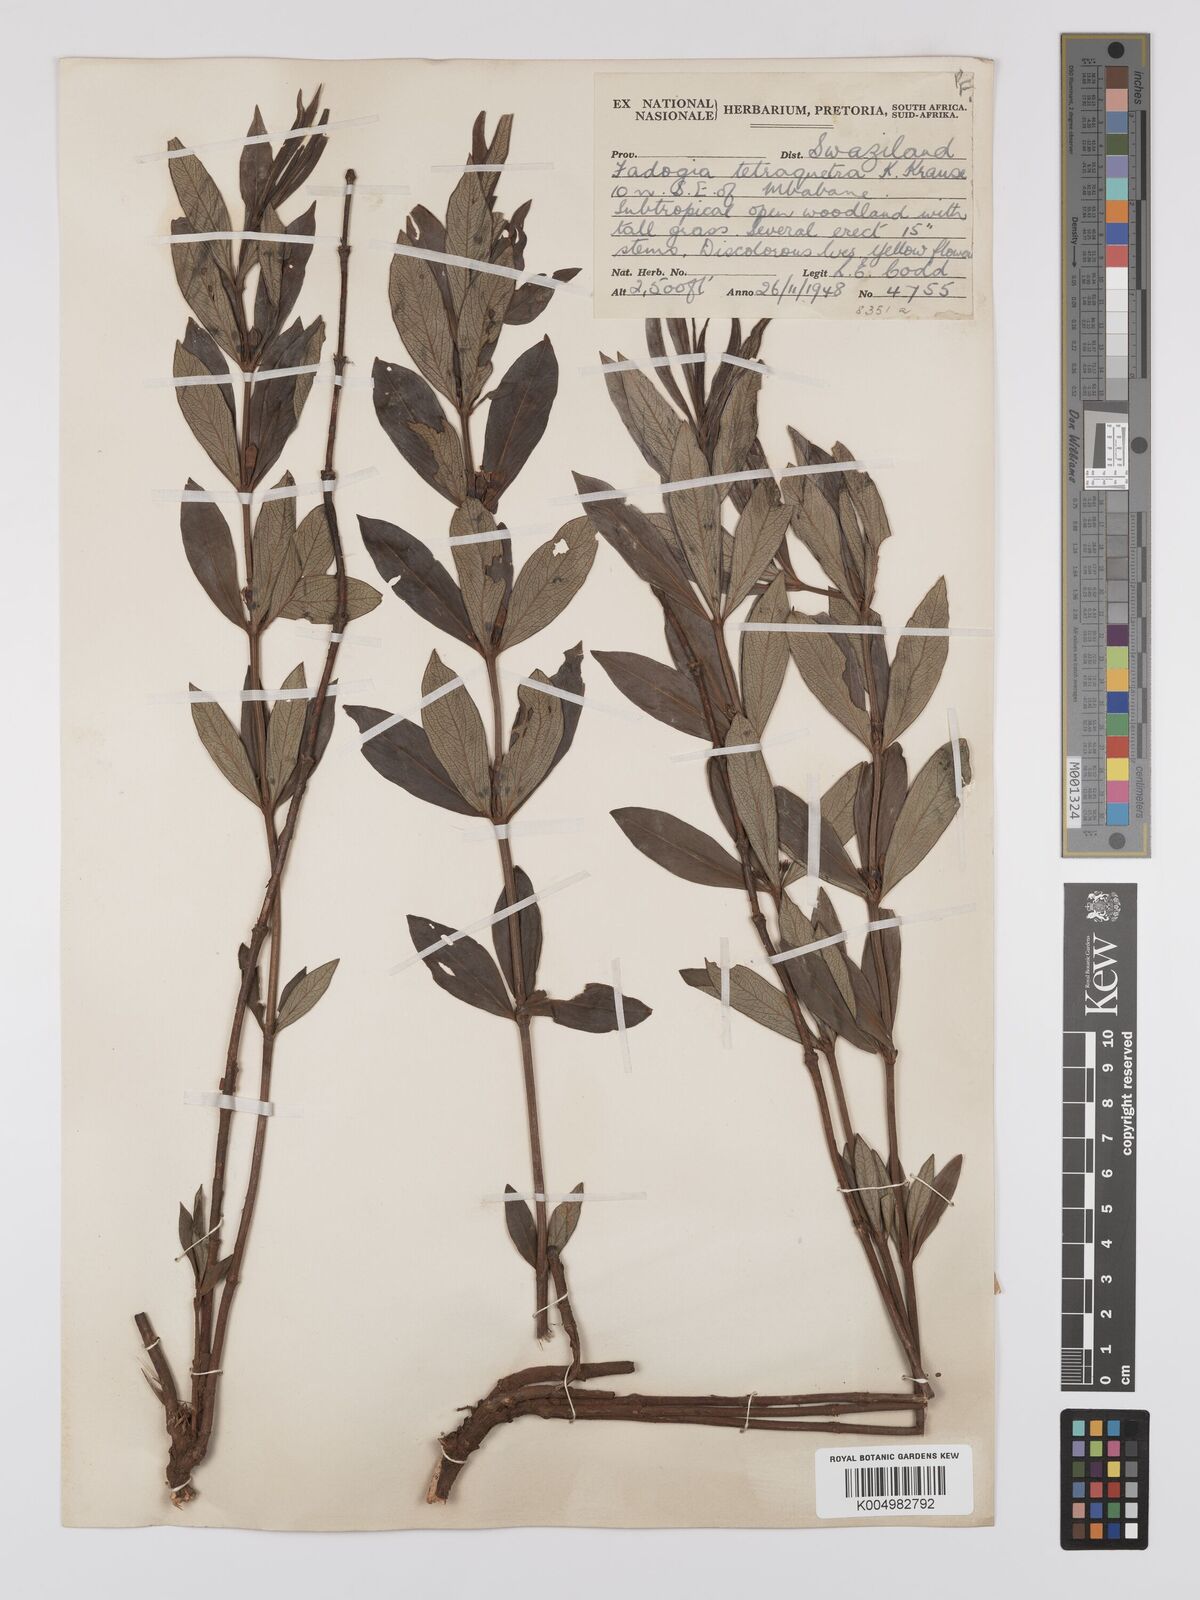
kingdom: Plantae
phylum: Tracheophyta
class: Magnoliopsida
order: Gentianales
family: Rubiaceae
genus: Fadogia
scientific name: Fadogia tetraquetra
